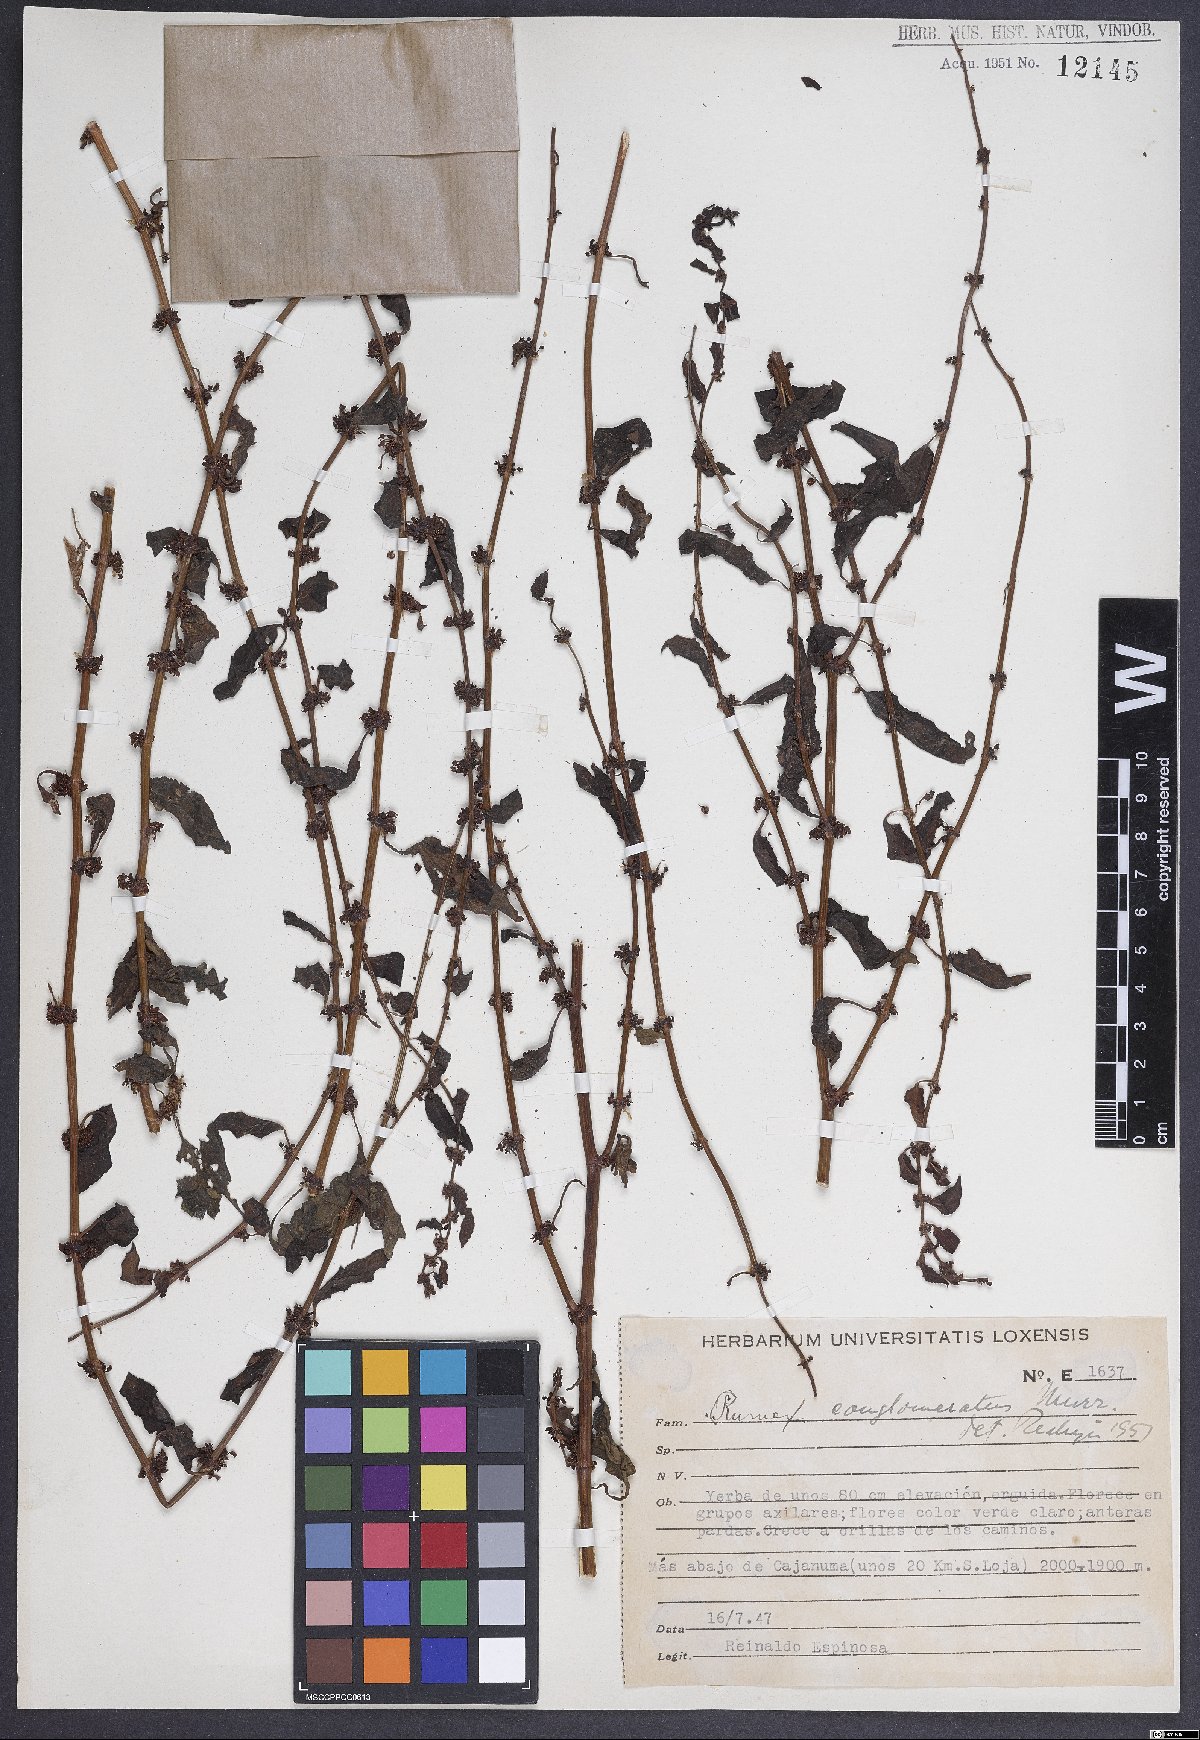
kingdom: Plantae
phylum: Tracheophyta
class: Magnoliopsida
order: Caryophyllales
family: Polygonaceae
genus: Rumex
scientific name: Rumex conglomeratus
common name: Clustered dock
